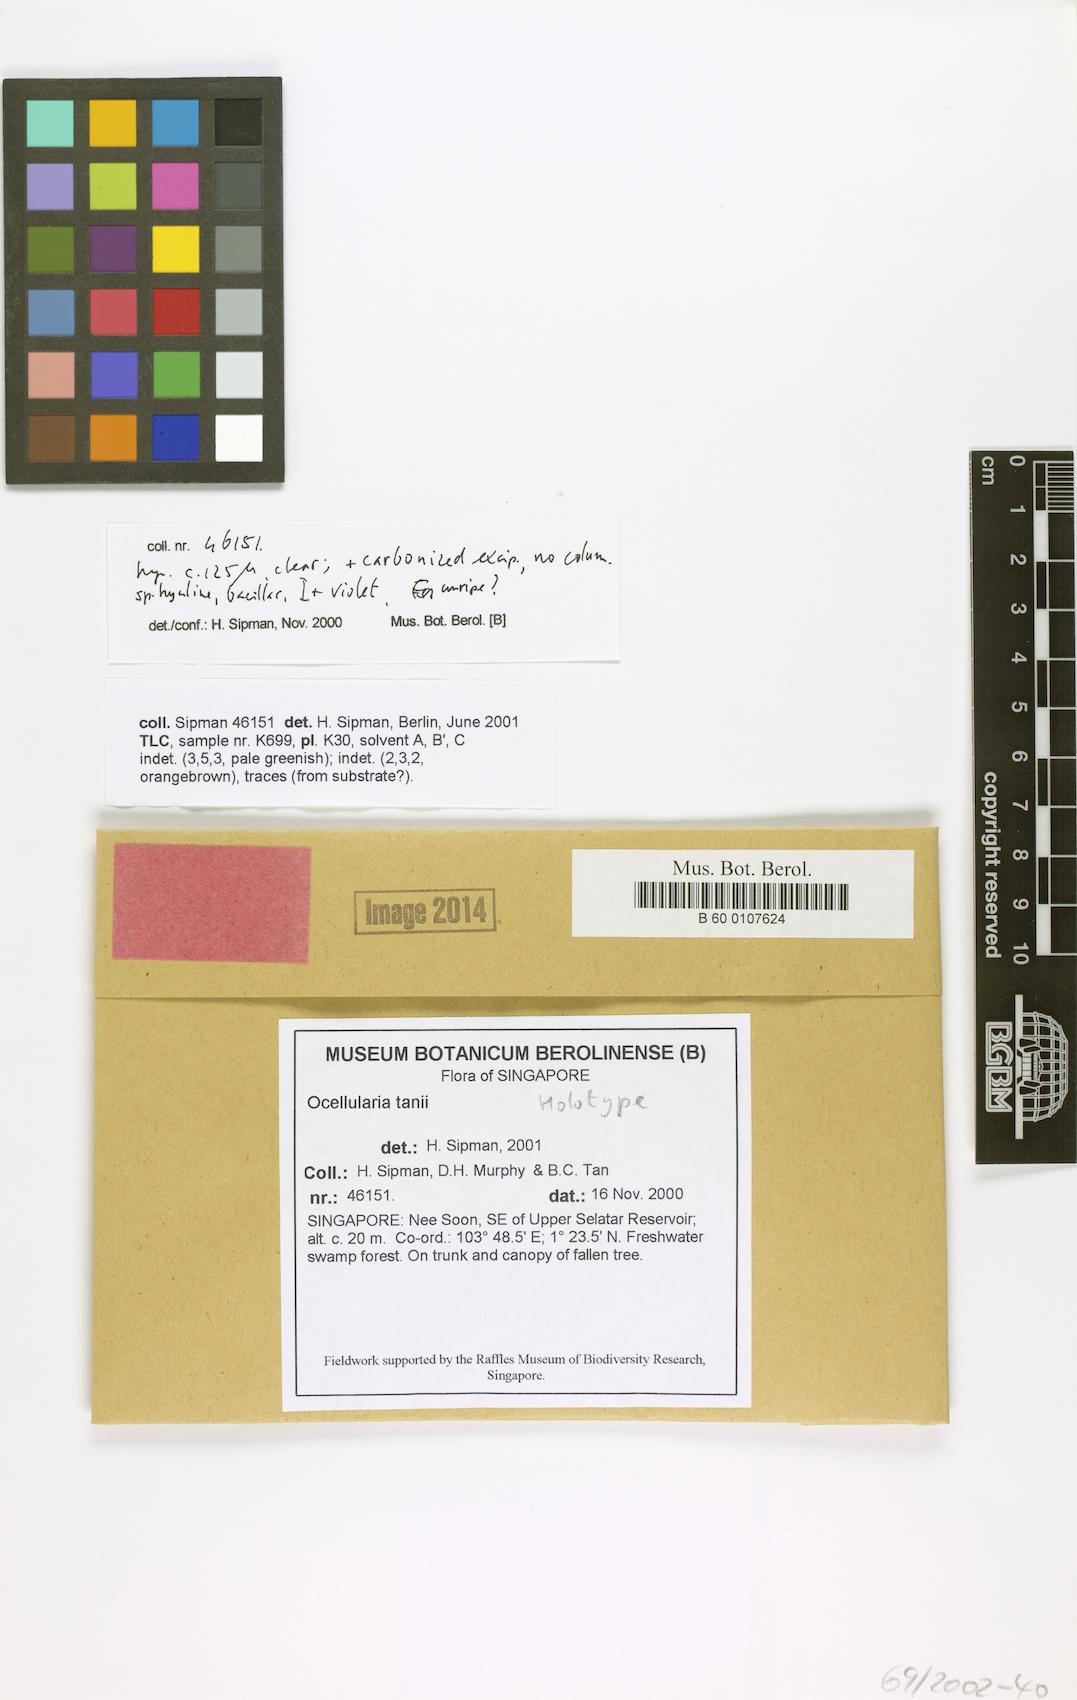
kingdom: Fungi
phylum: Ascomycota
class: Lecanoromycetes
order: Ostropales
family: Graphidaceae
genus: Ocellularia
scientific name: Ocellularia tanii
